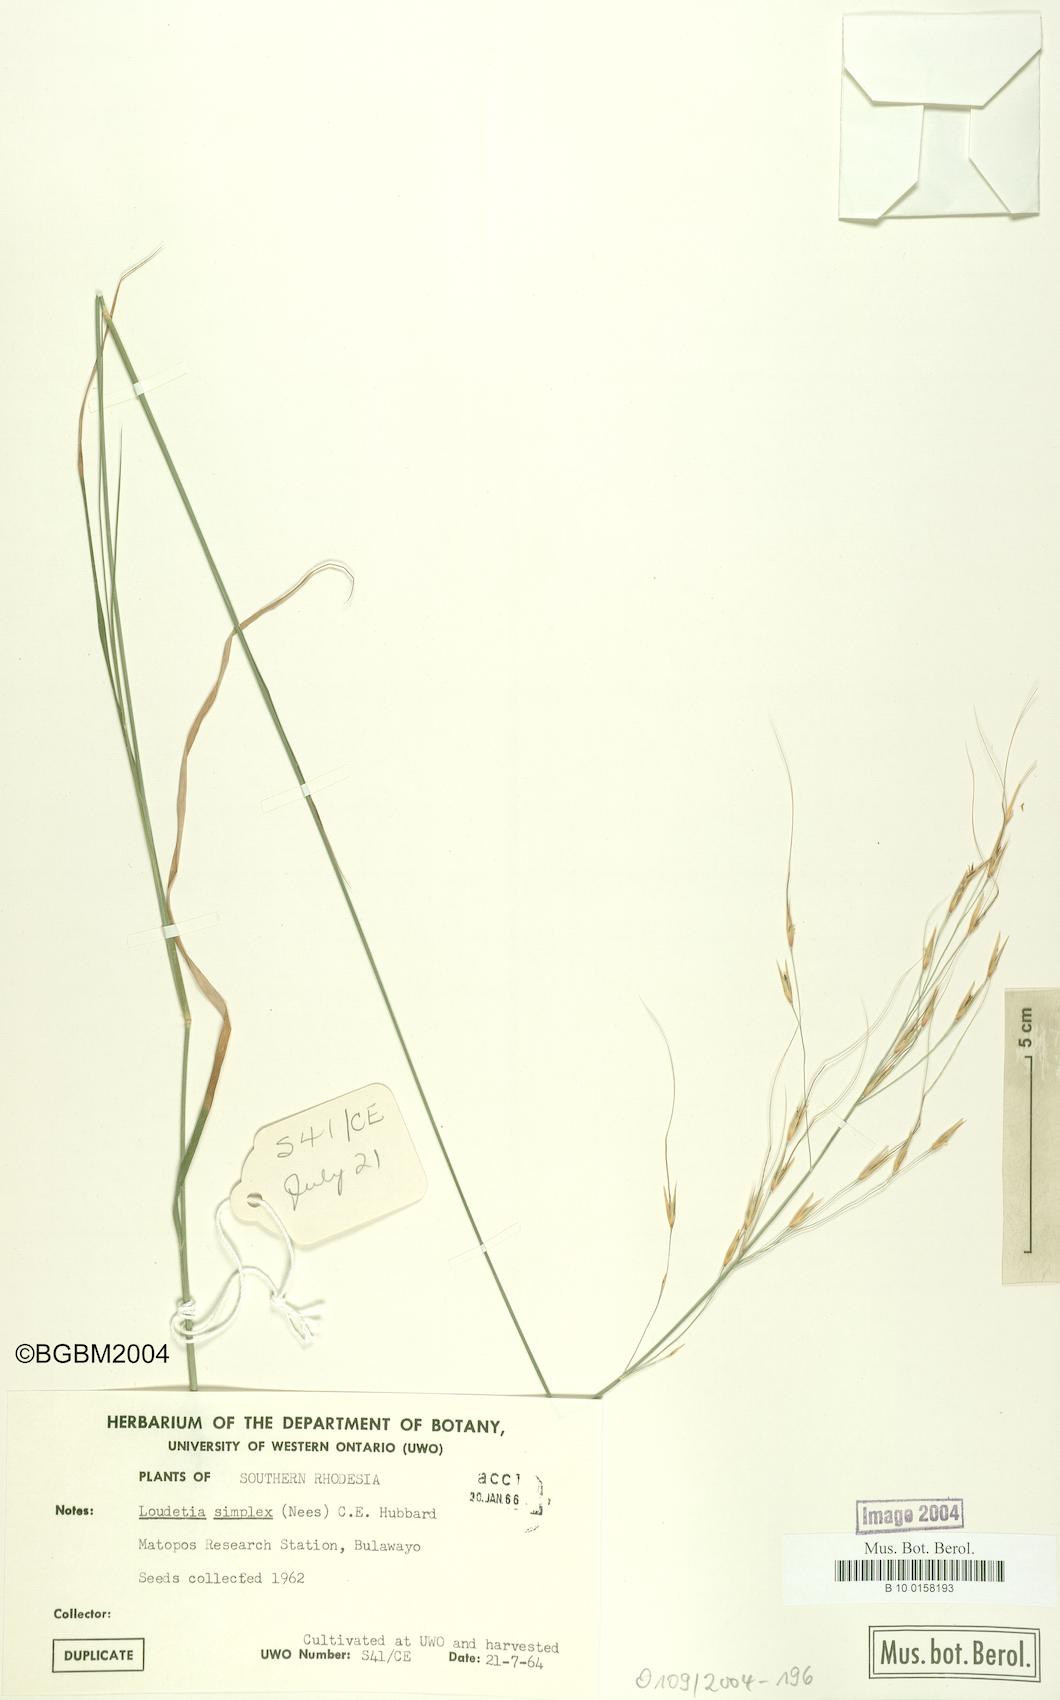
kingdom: Plantae
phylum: Tracheophyta
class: Liliopsida
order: Poales
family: Poaceae
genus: Loudetia
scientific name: Loudetia simplex
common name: Common russet grass
